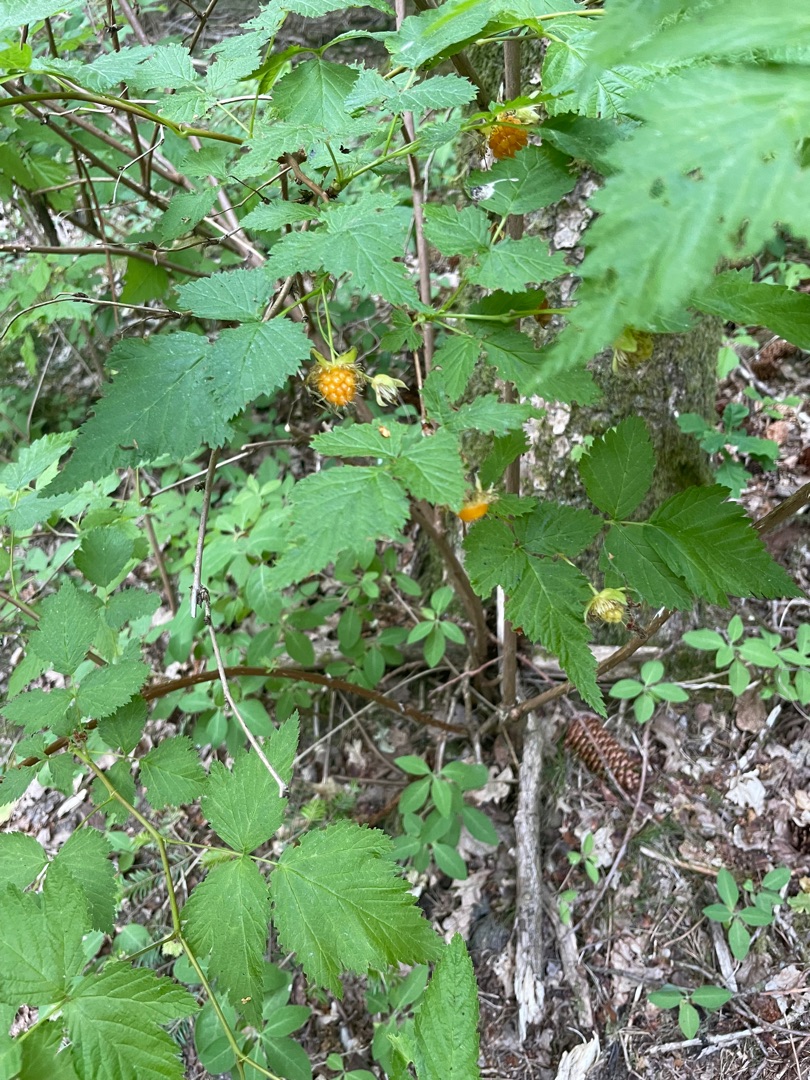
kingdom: Plantae
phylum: Tracheophyta
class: Magnoliopsida
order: Rosales
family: Rosaceae
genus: Rubus
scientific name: Rubus spectabilis
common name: Laksebær
